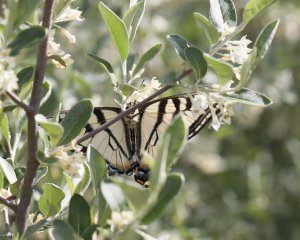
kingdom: Animalia
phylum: Arthropoda
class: Insecta
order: Lepidoptera
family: Papilionidae
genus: Pterourus
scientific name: Pterourus canadensis
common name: Canadian Tiger Swallowtail
